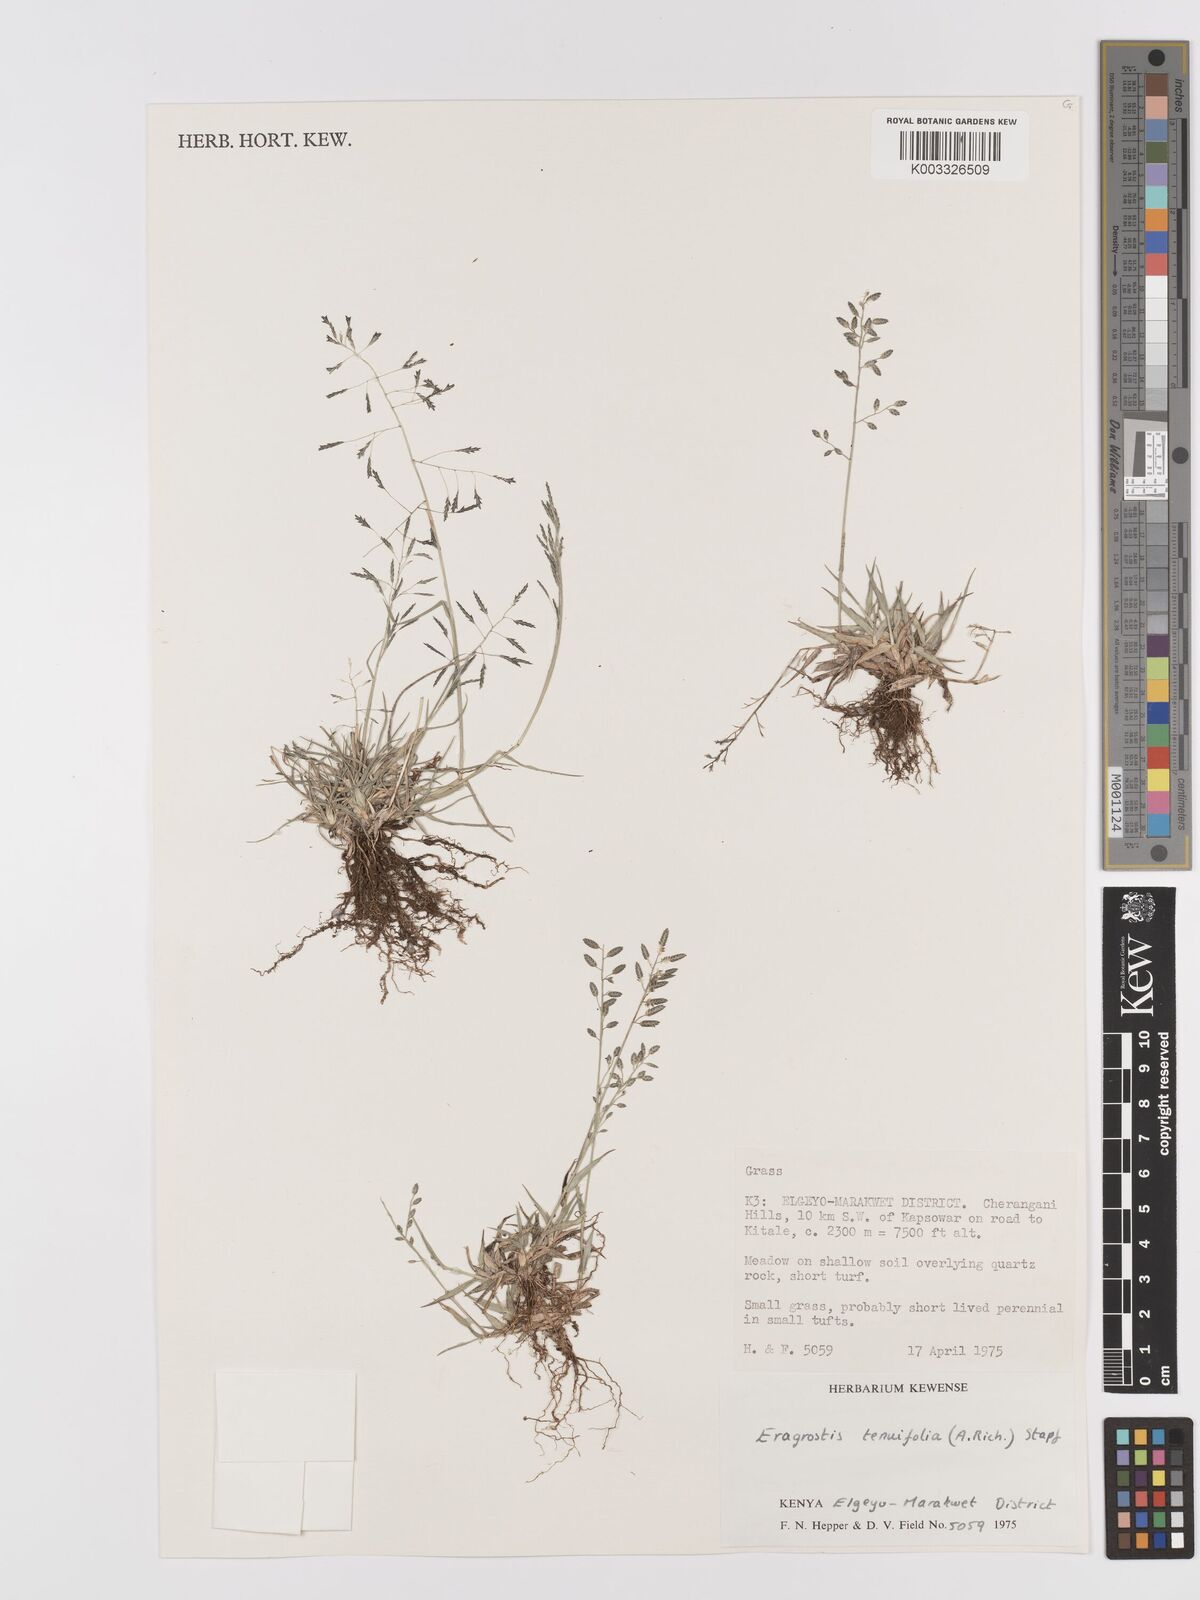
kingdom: Plantae
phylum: Tracheophyta
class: Liliopsida
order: Poales
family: Poaceae
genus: Eragrostis
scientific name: Eragrostis tenuifolia
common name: Elastic grass
